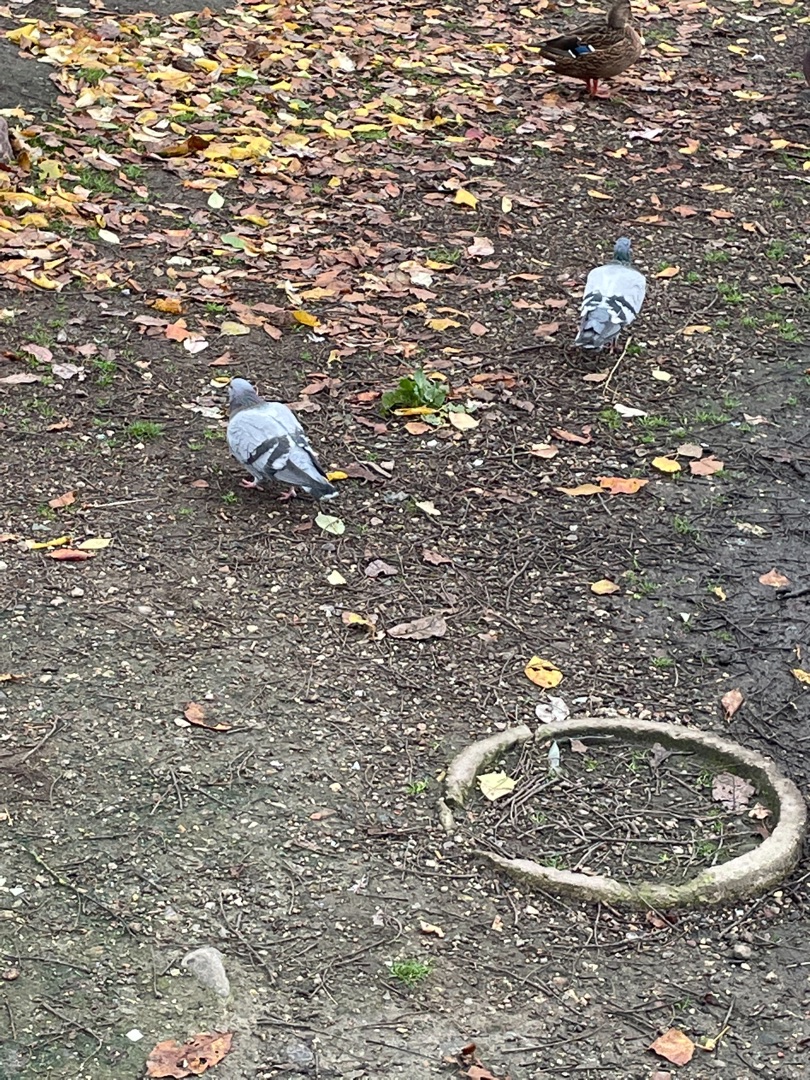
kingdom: Animalia
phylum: Chordata
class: Aves
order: Columbiformes
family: Columbidae
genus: Columba
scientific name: Columba livia
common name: Tamdue
